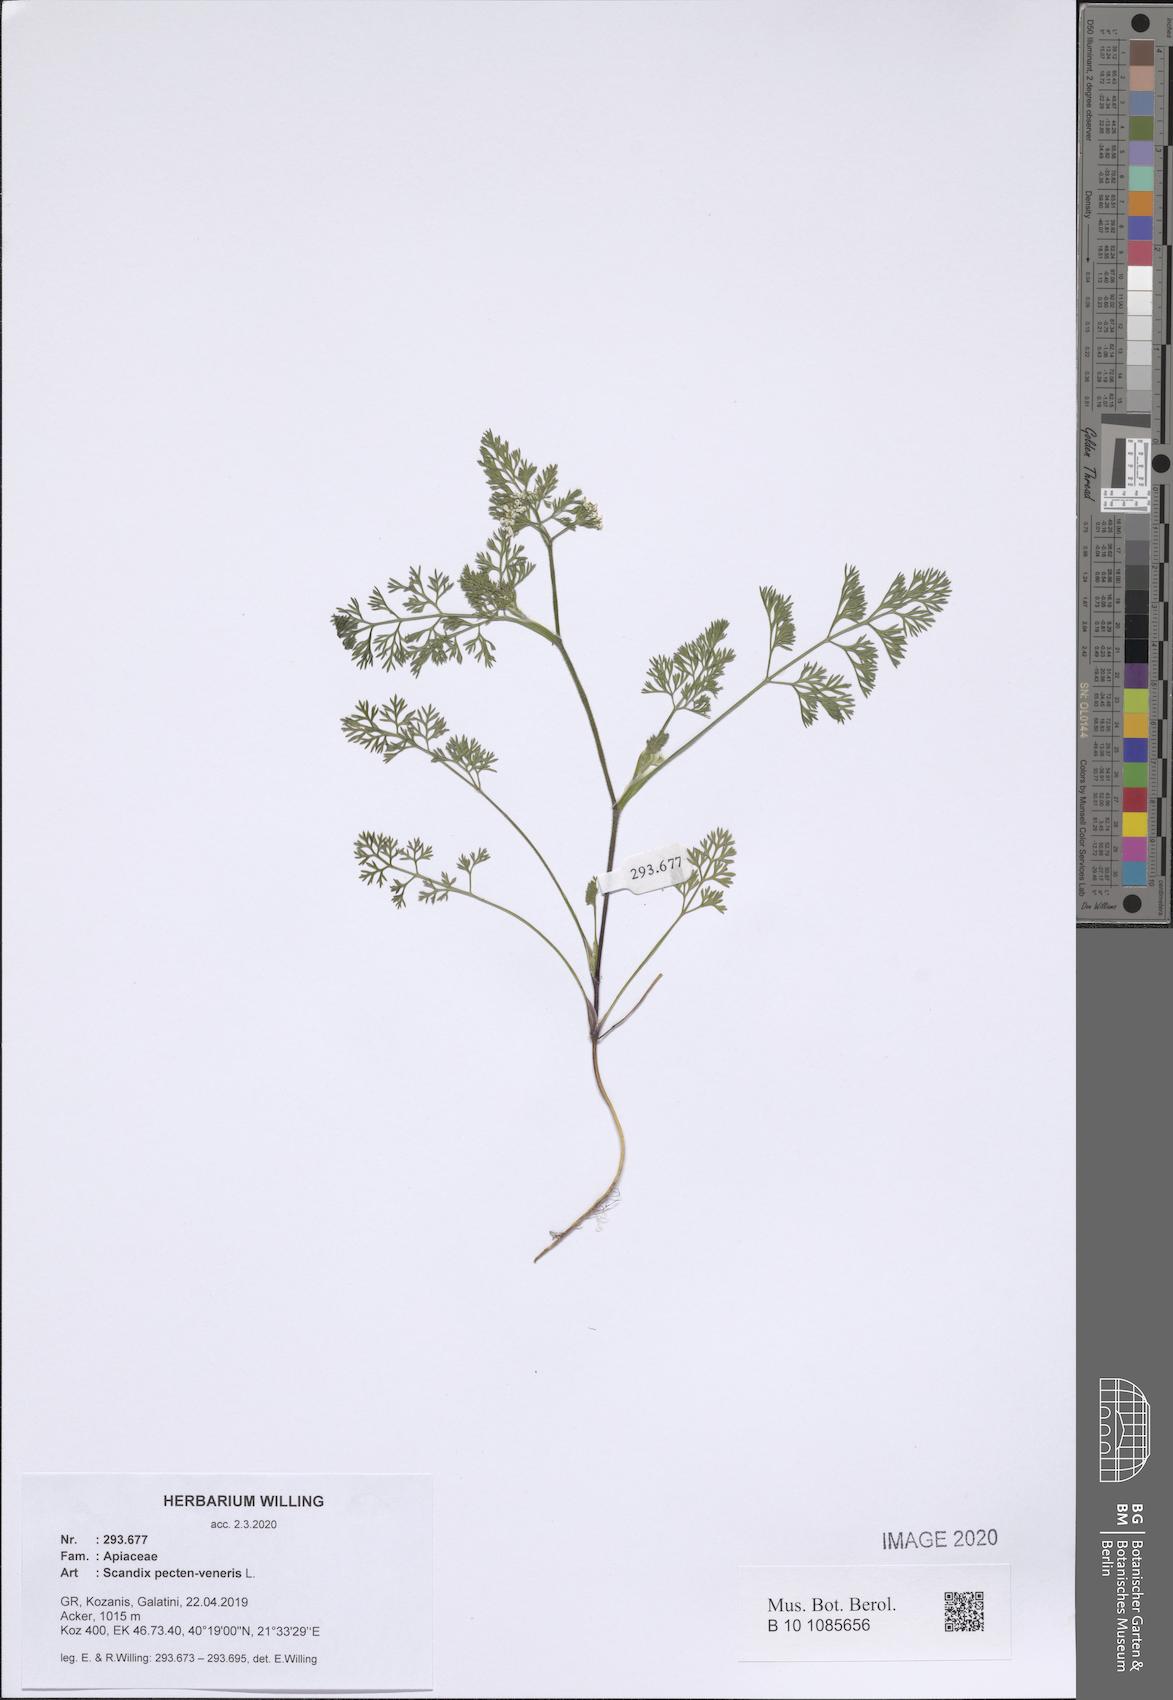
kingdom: Plantae
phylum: Tracheophyta
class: Magnoliopsida
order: Apiales
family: Apiaceae
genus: Scandix
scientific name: Scandix pecten-veneris
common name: Shepherd's-needle
